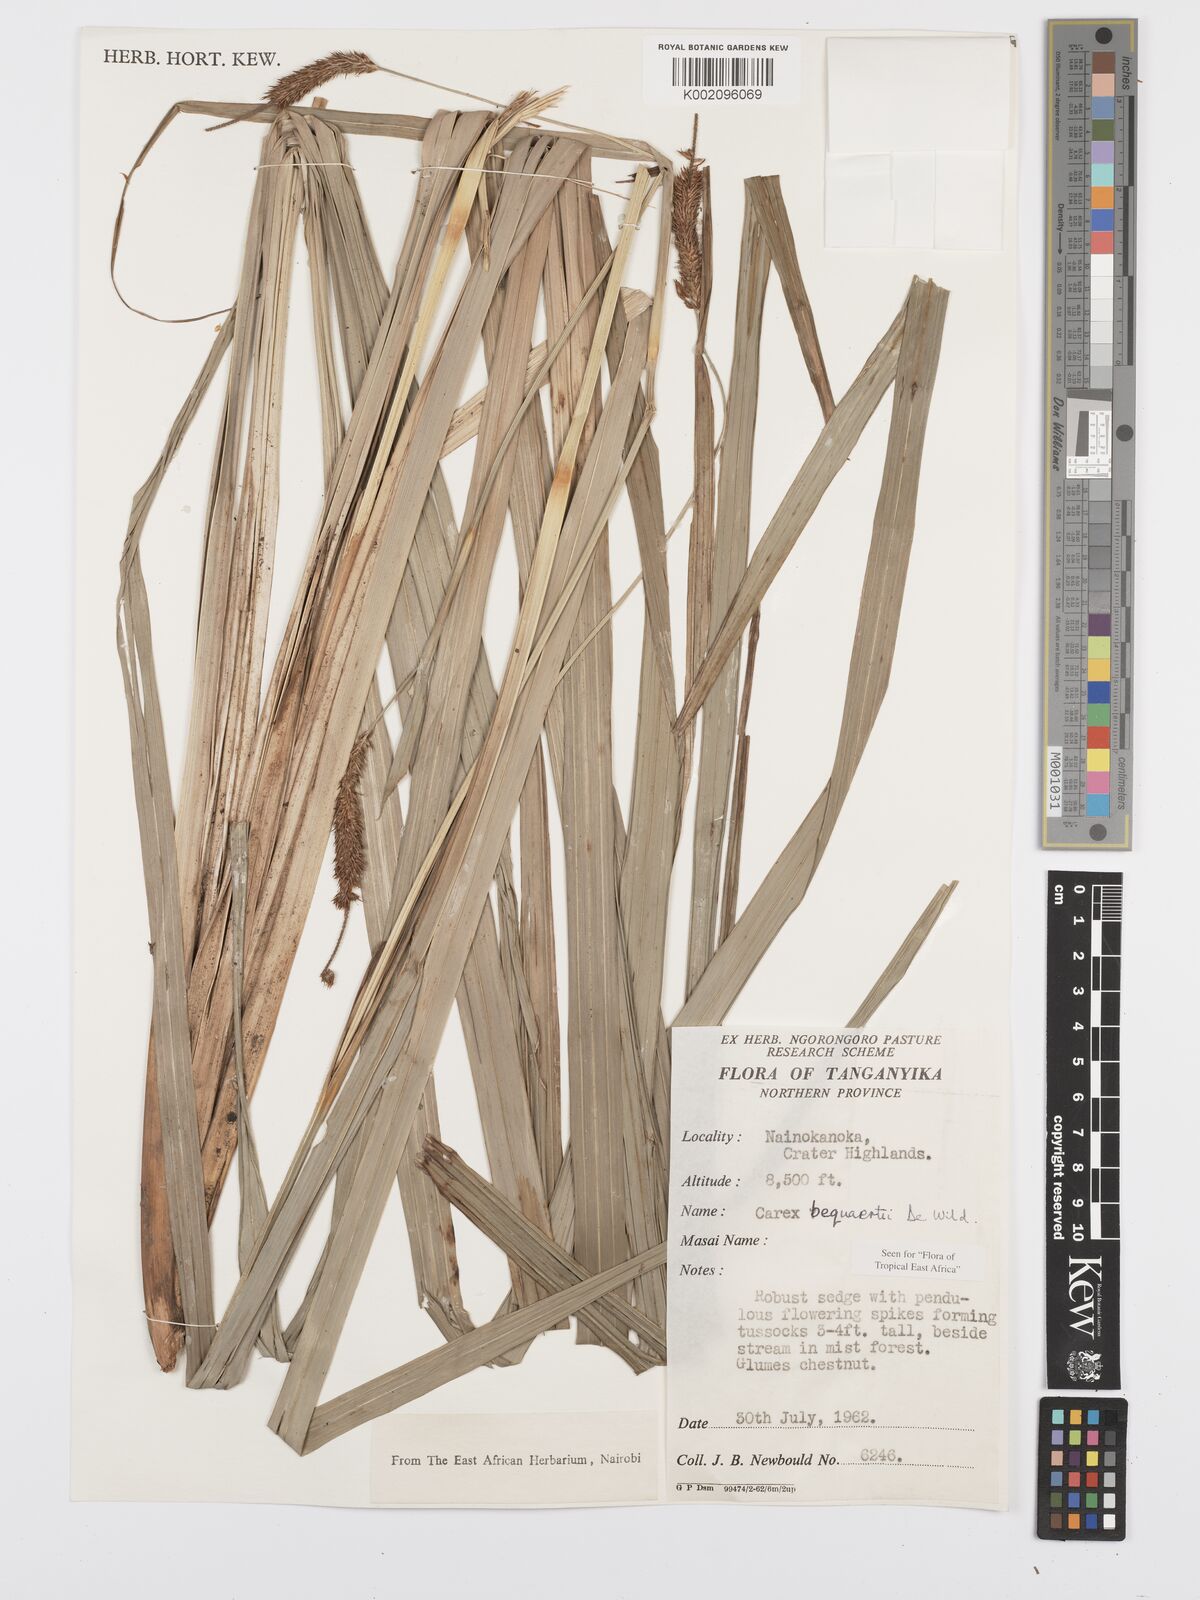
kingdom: Plantae
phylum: Tracheophyta
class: Liliopsida
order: Poales
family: Cyperaceae
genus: Carex
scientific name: Carex bequaertii
